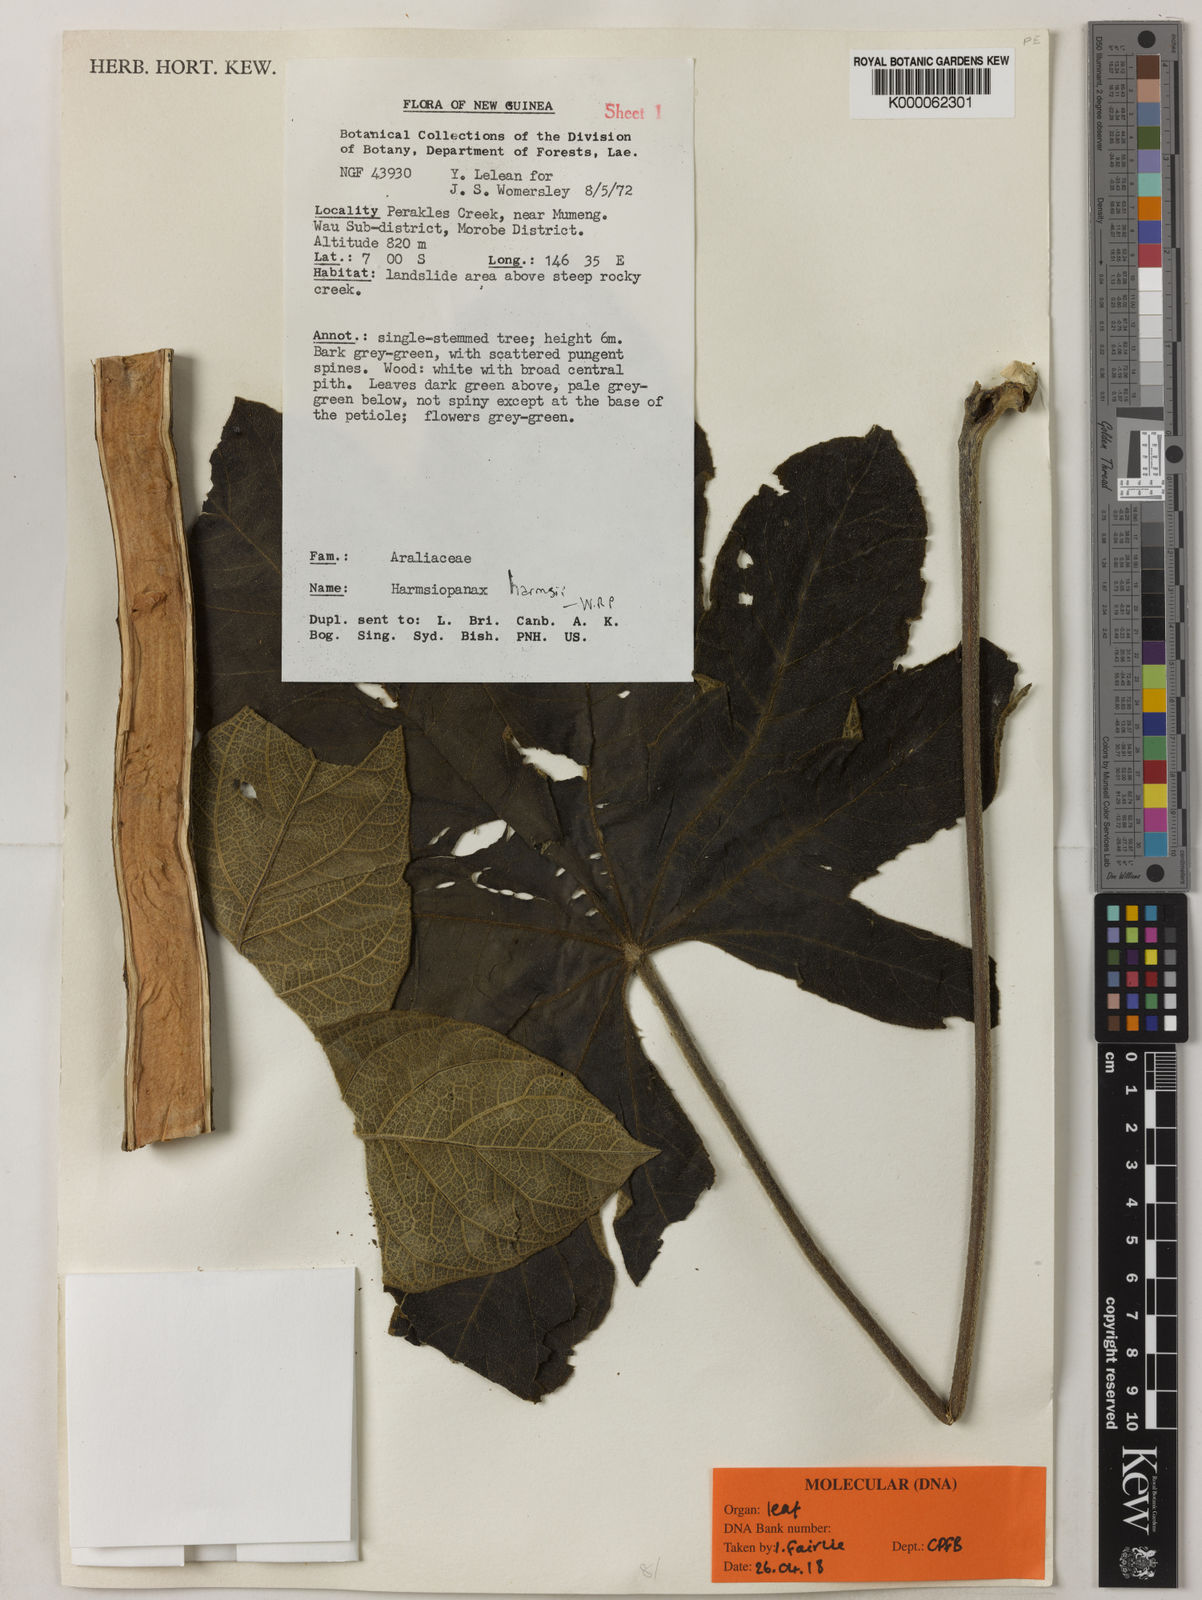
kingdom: Plantae
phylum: Tracheophyta
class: Magnoliopsida
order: Apiales
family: Araliaceae
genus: Harmsiopanax
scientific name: Harmsiopanax harmsii
